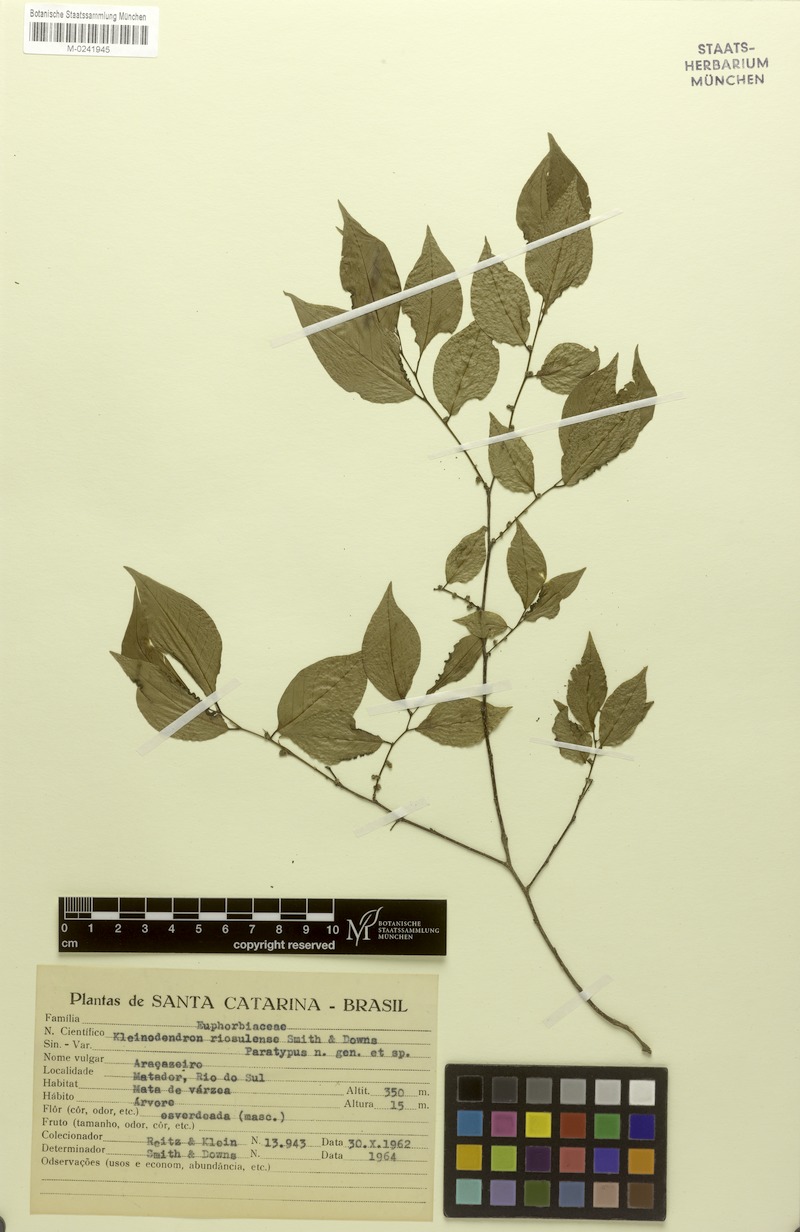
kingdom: Plantae
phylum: Tracheophyta
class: Magnoliopsida
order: Malpighiales
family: Phyllanthaceae
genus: Savia
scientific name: Savia dictyocarpa
